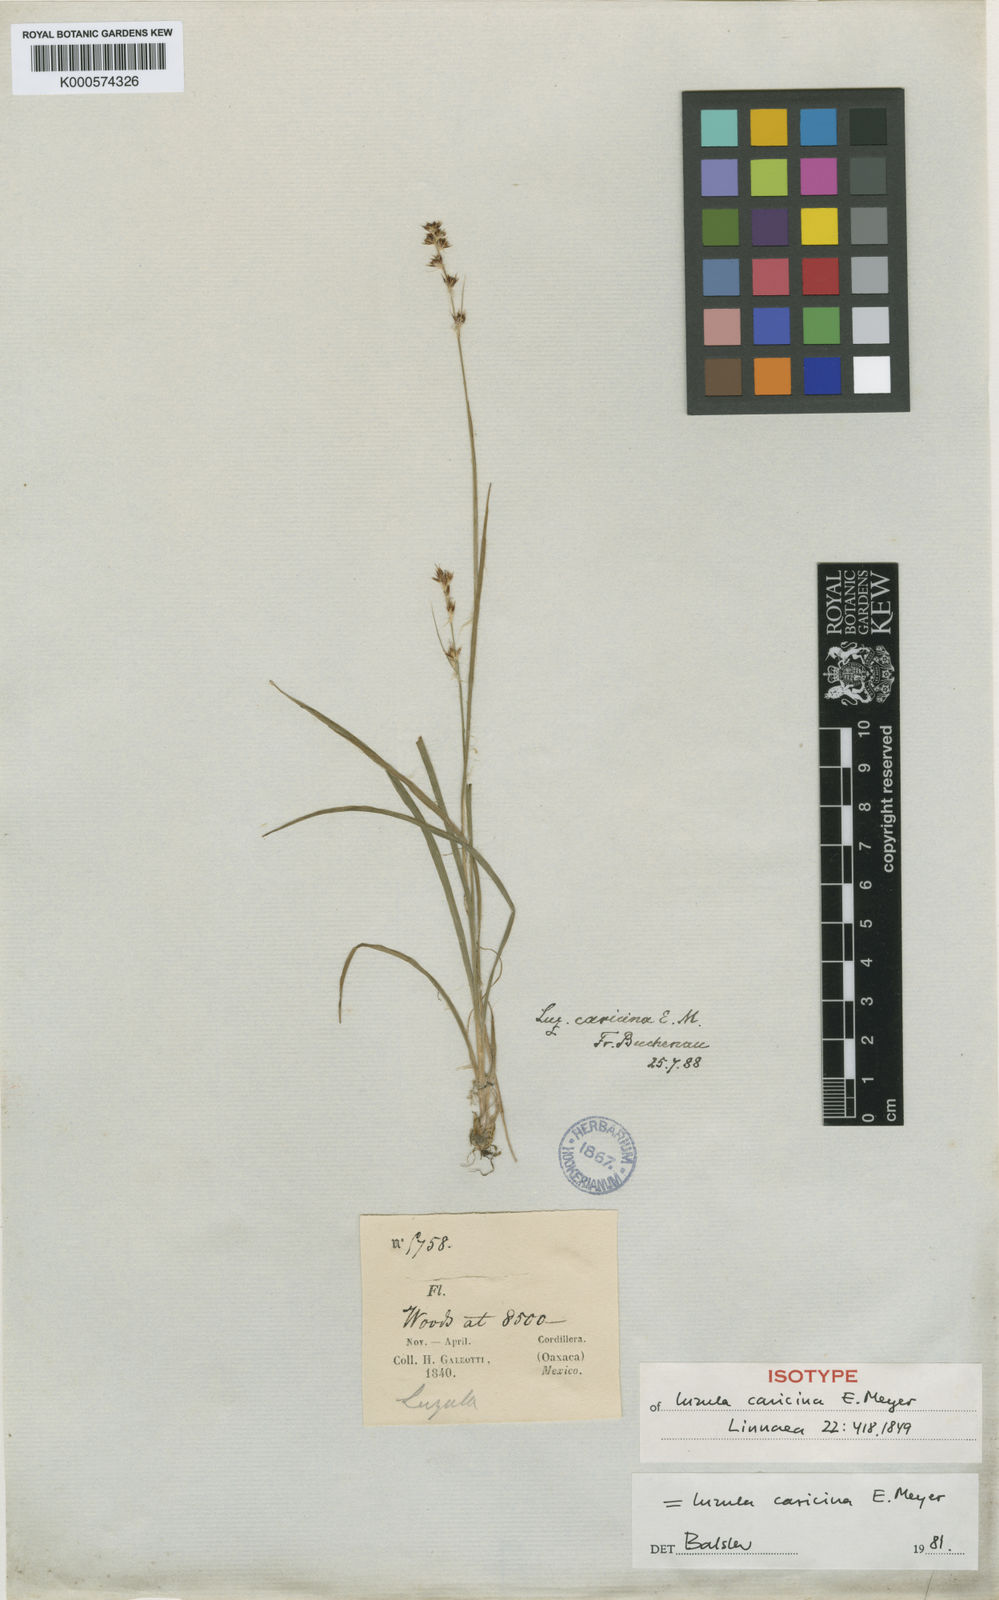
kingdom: Plantae
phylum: Tracheophyta
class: Liliopsida
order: Poales
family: Juncaceae
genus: Luzula
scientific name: Luzula caricina
